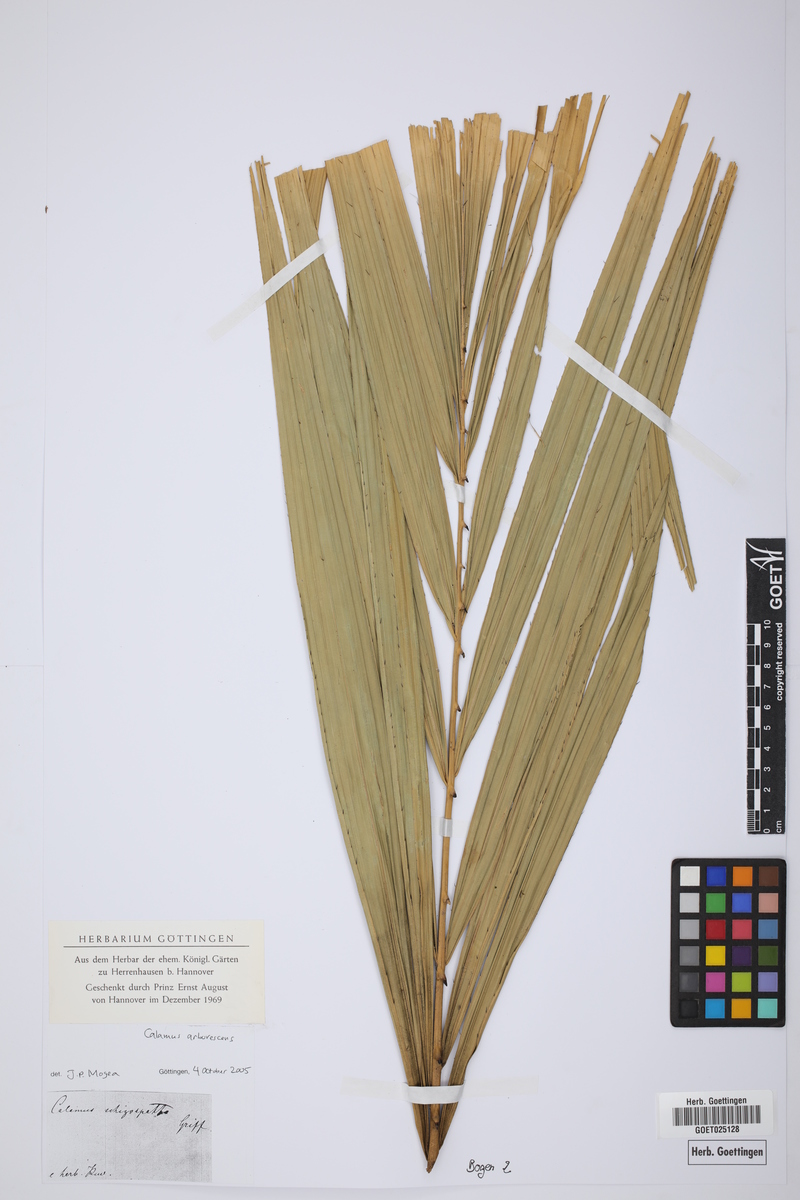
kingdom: Plantae
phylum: Tracheophyta
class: Liliopsida
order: Arecales
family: Arecaceae
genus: Calamus
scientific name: Calamus arborescens
